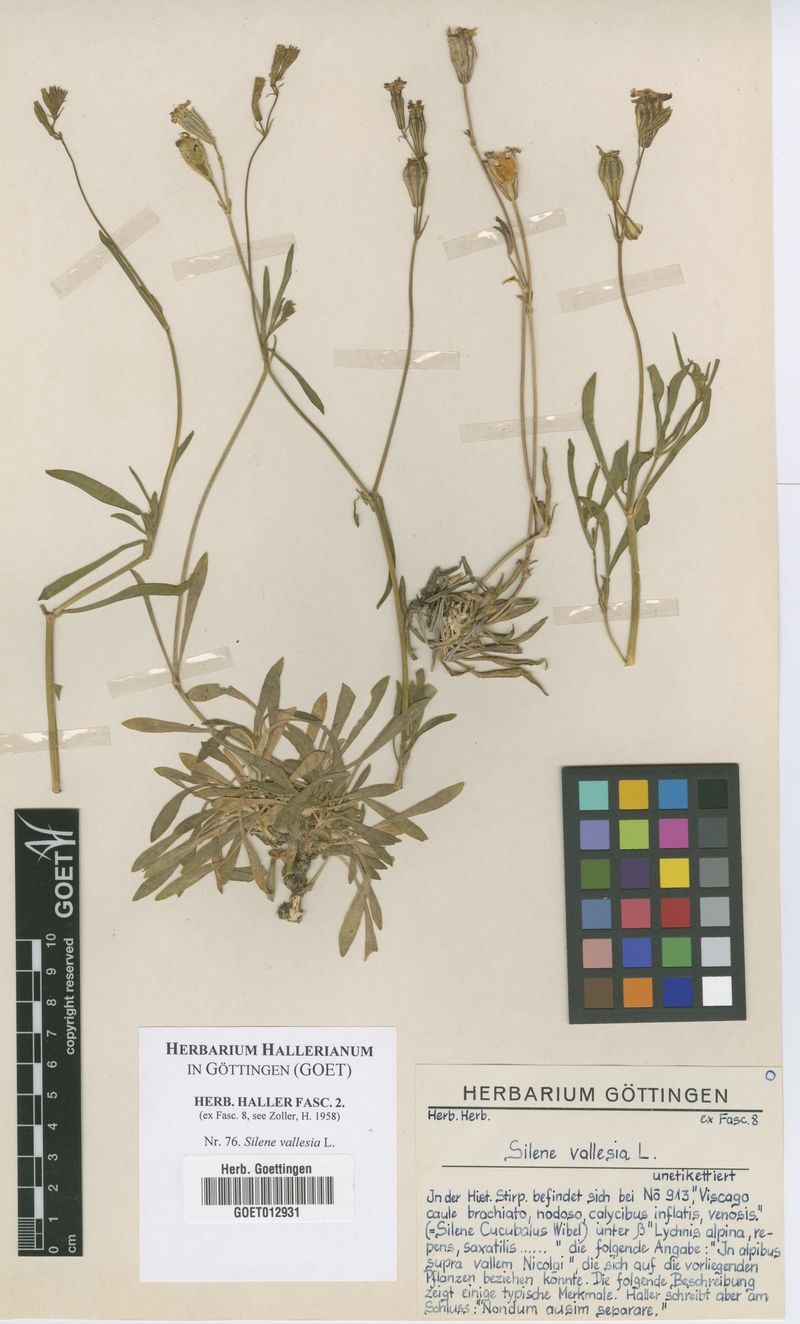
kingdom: Plantae
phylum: Tracheophyta
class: Magnoliopsida
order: Caryophyllales
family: Caryophyllaceae
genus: Silene
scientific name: Silene vallesia
